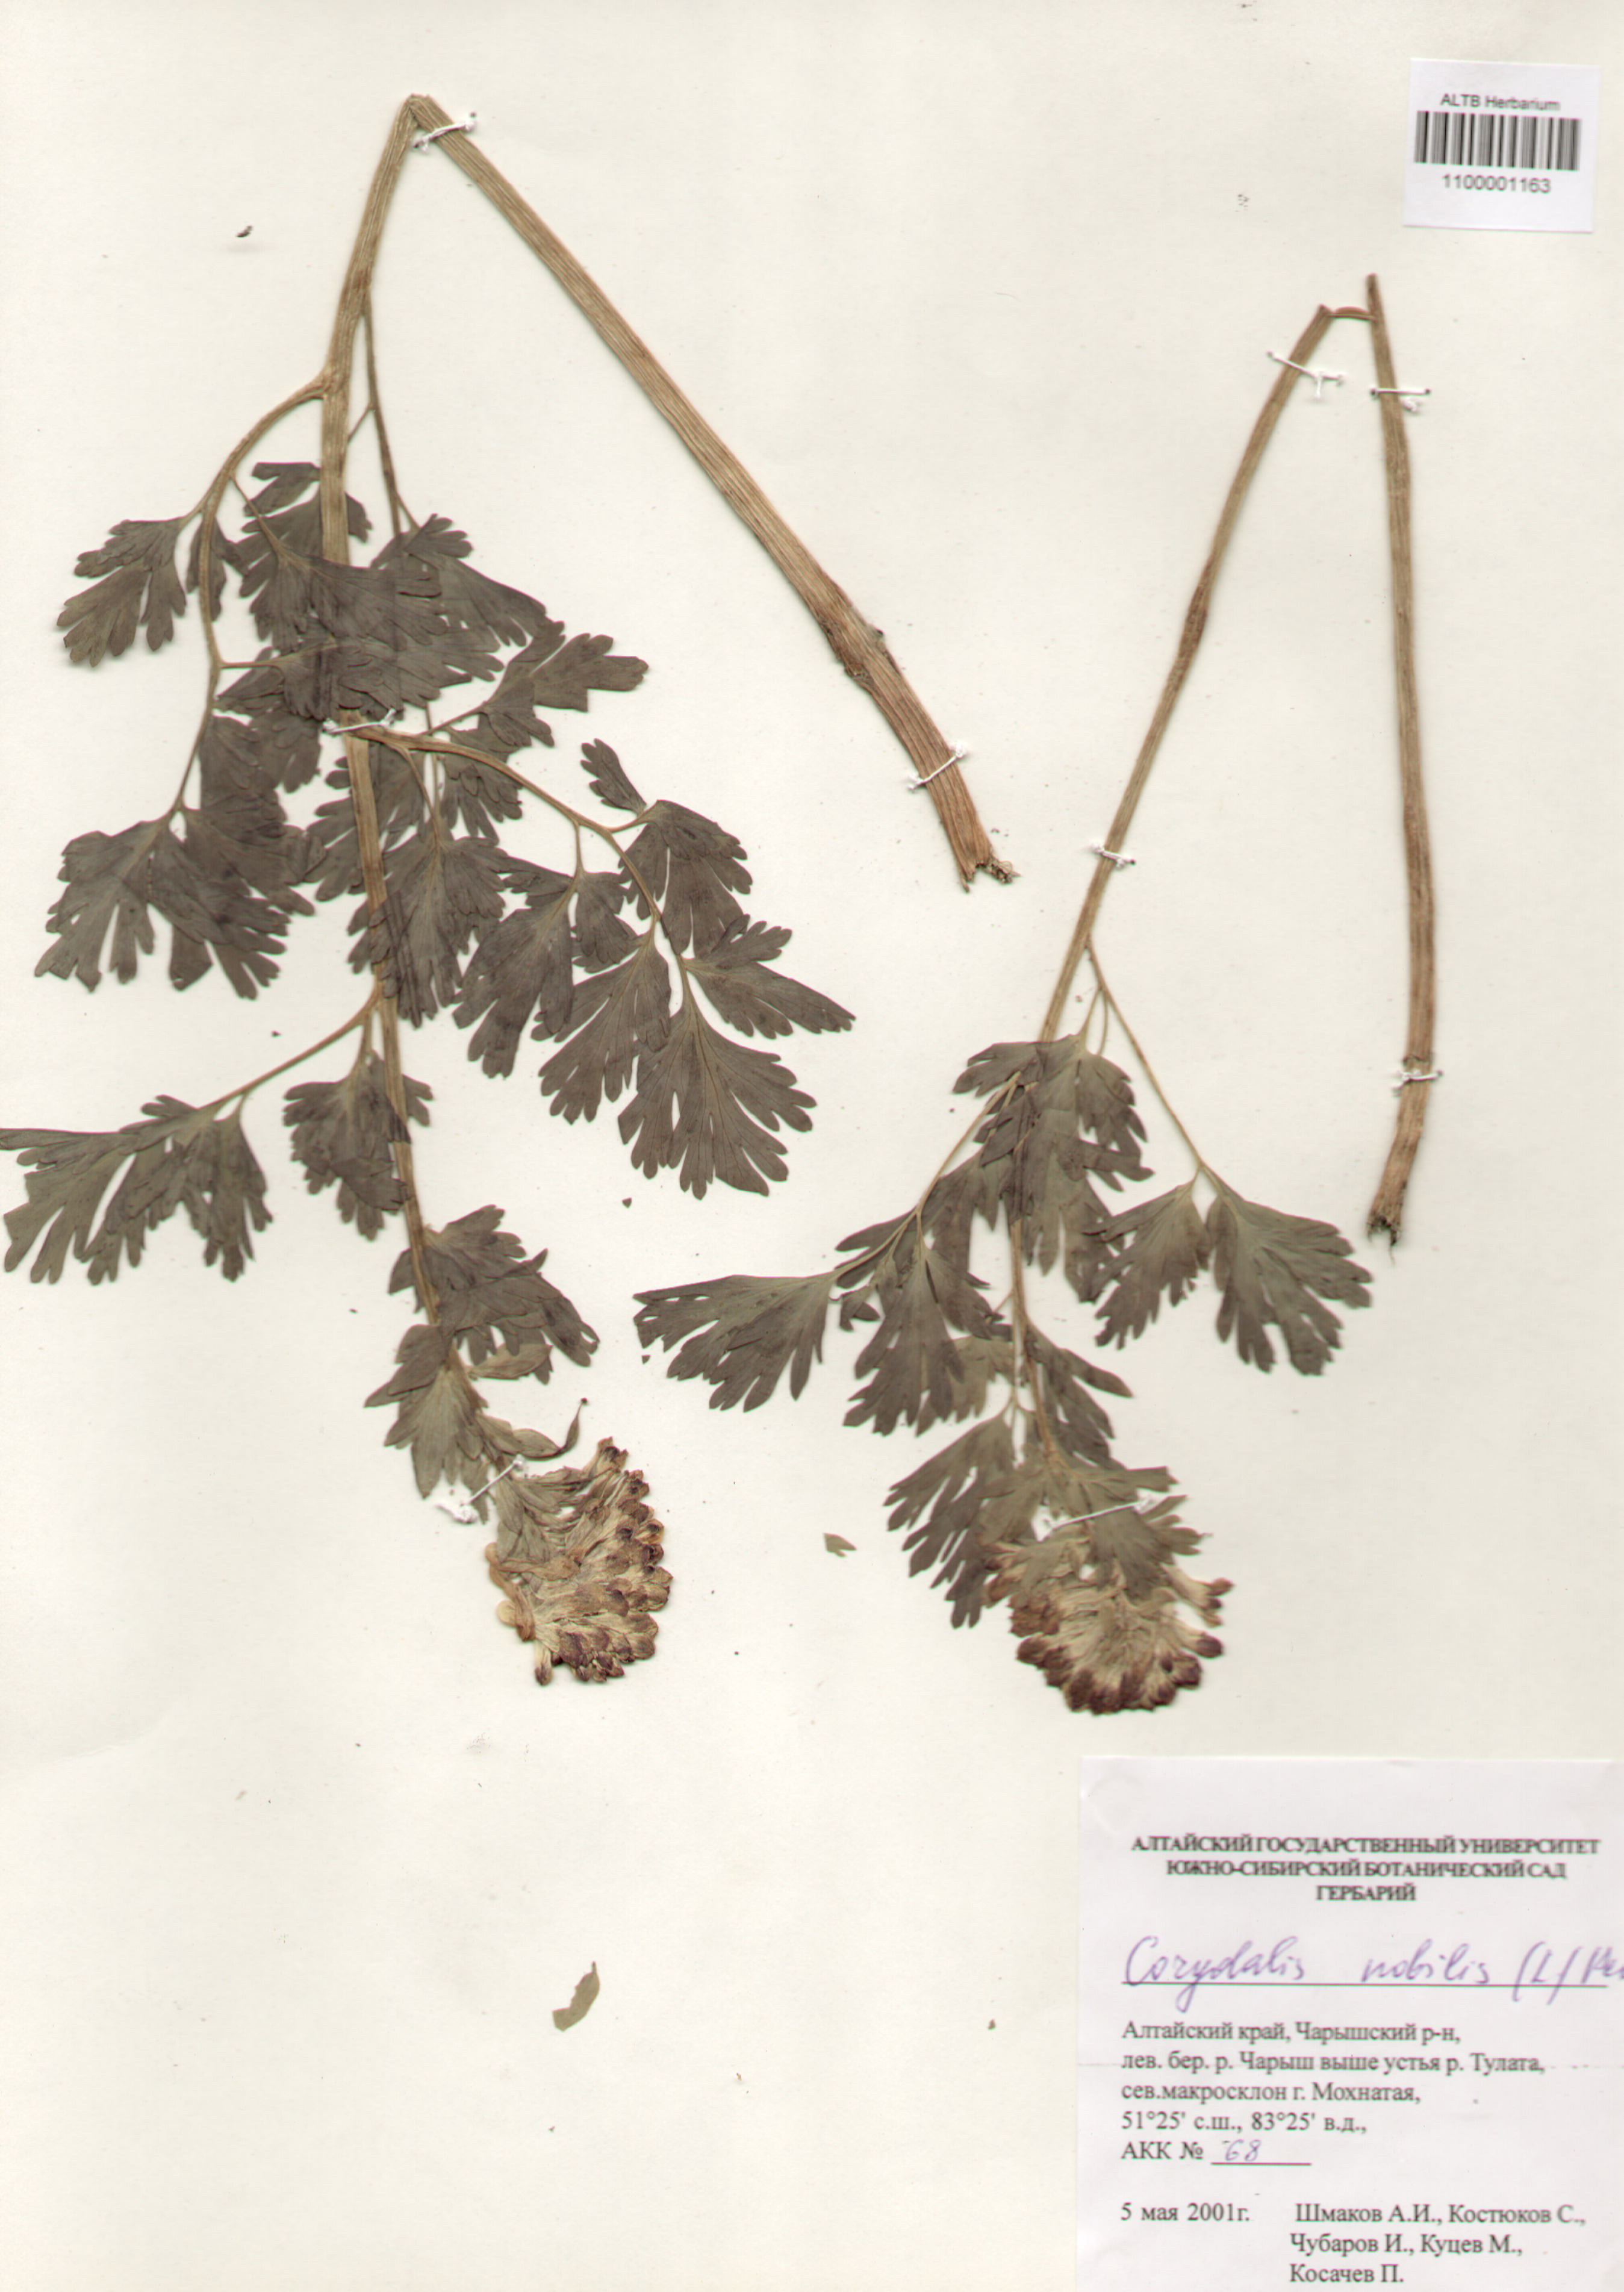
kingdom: Plantae
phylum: Tracheophyta
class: Magnoliopsida
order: Ranunculales
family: Papaveraceae
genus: Corydalis
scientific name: Corydalis nobilis
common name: Siberian corydalis
